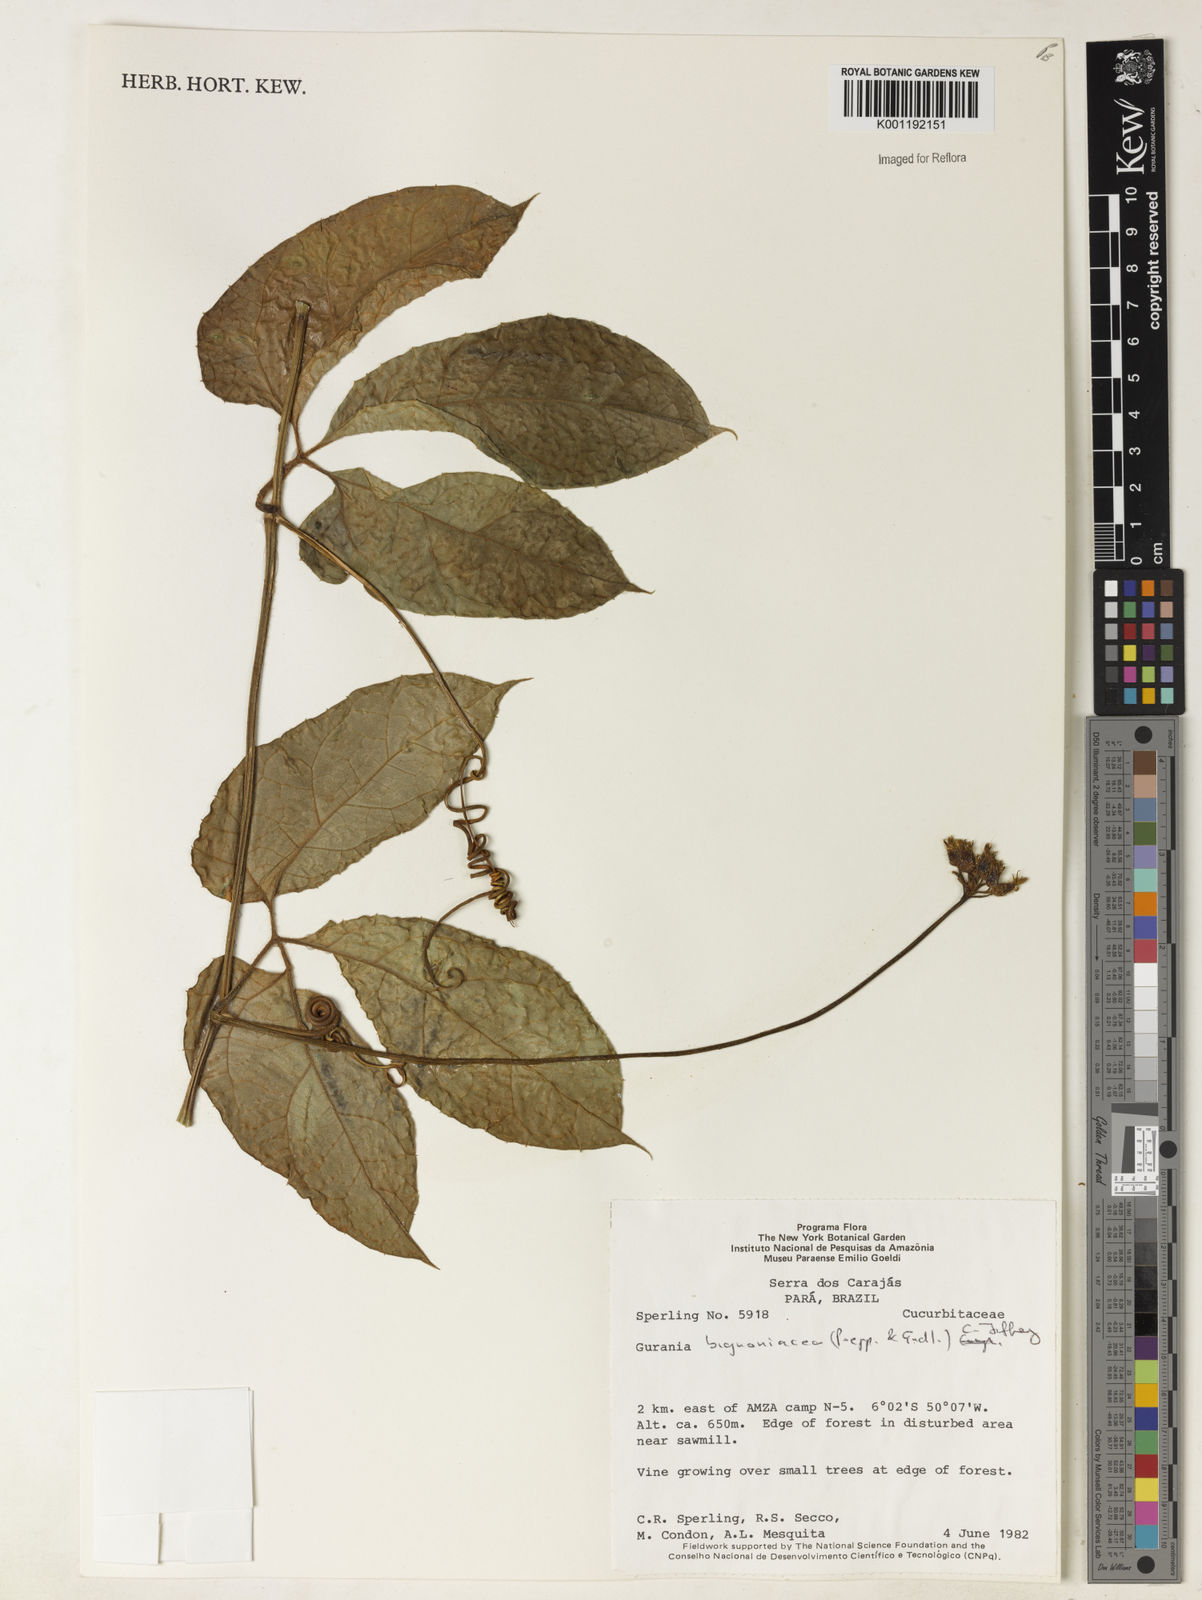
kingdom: Plantae
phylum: Tracheophyta
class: Magnoliopsida
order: Cucurbitales
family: Cucurbitaceae
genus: Gurania
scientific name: Gurania bignoniacea
